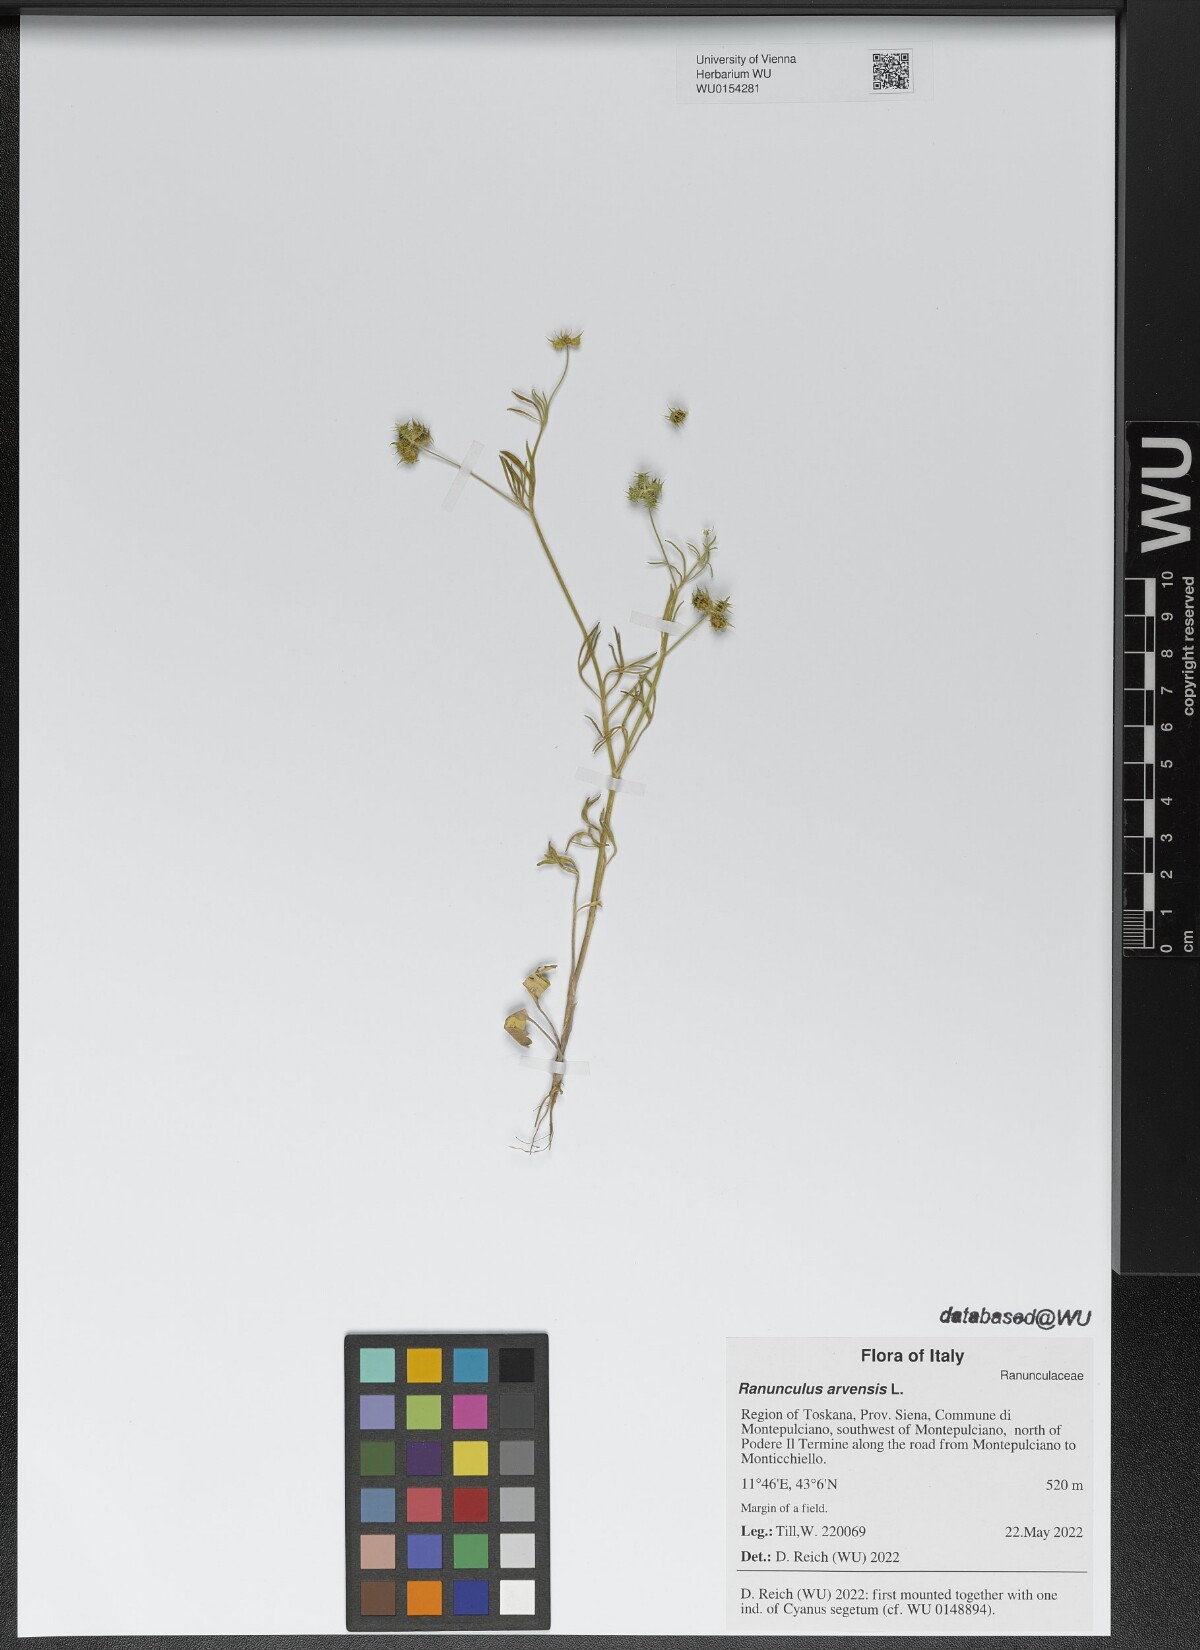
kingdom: Plantae
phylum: Tracheophyta
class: Magnoliopsida
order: Ranunculales
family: Ranunculaceae
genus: Ranunculus
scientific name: Ranunculus arvensis
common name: Corn buttercup
